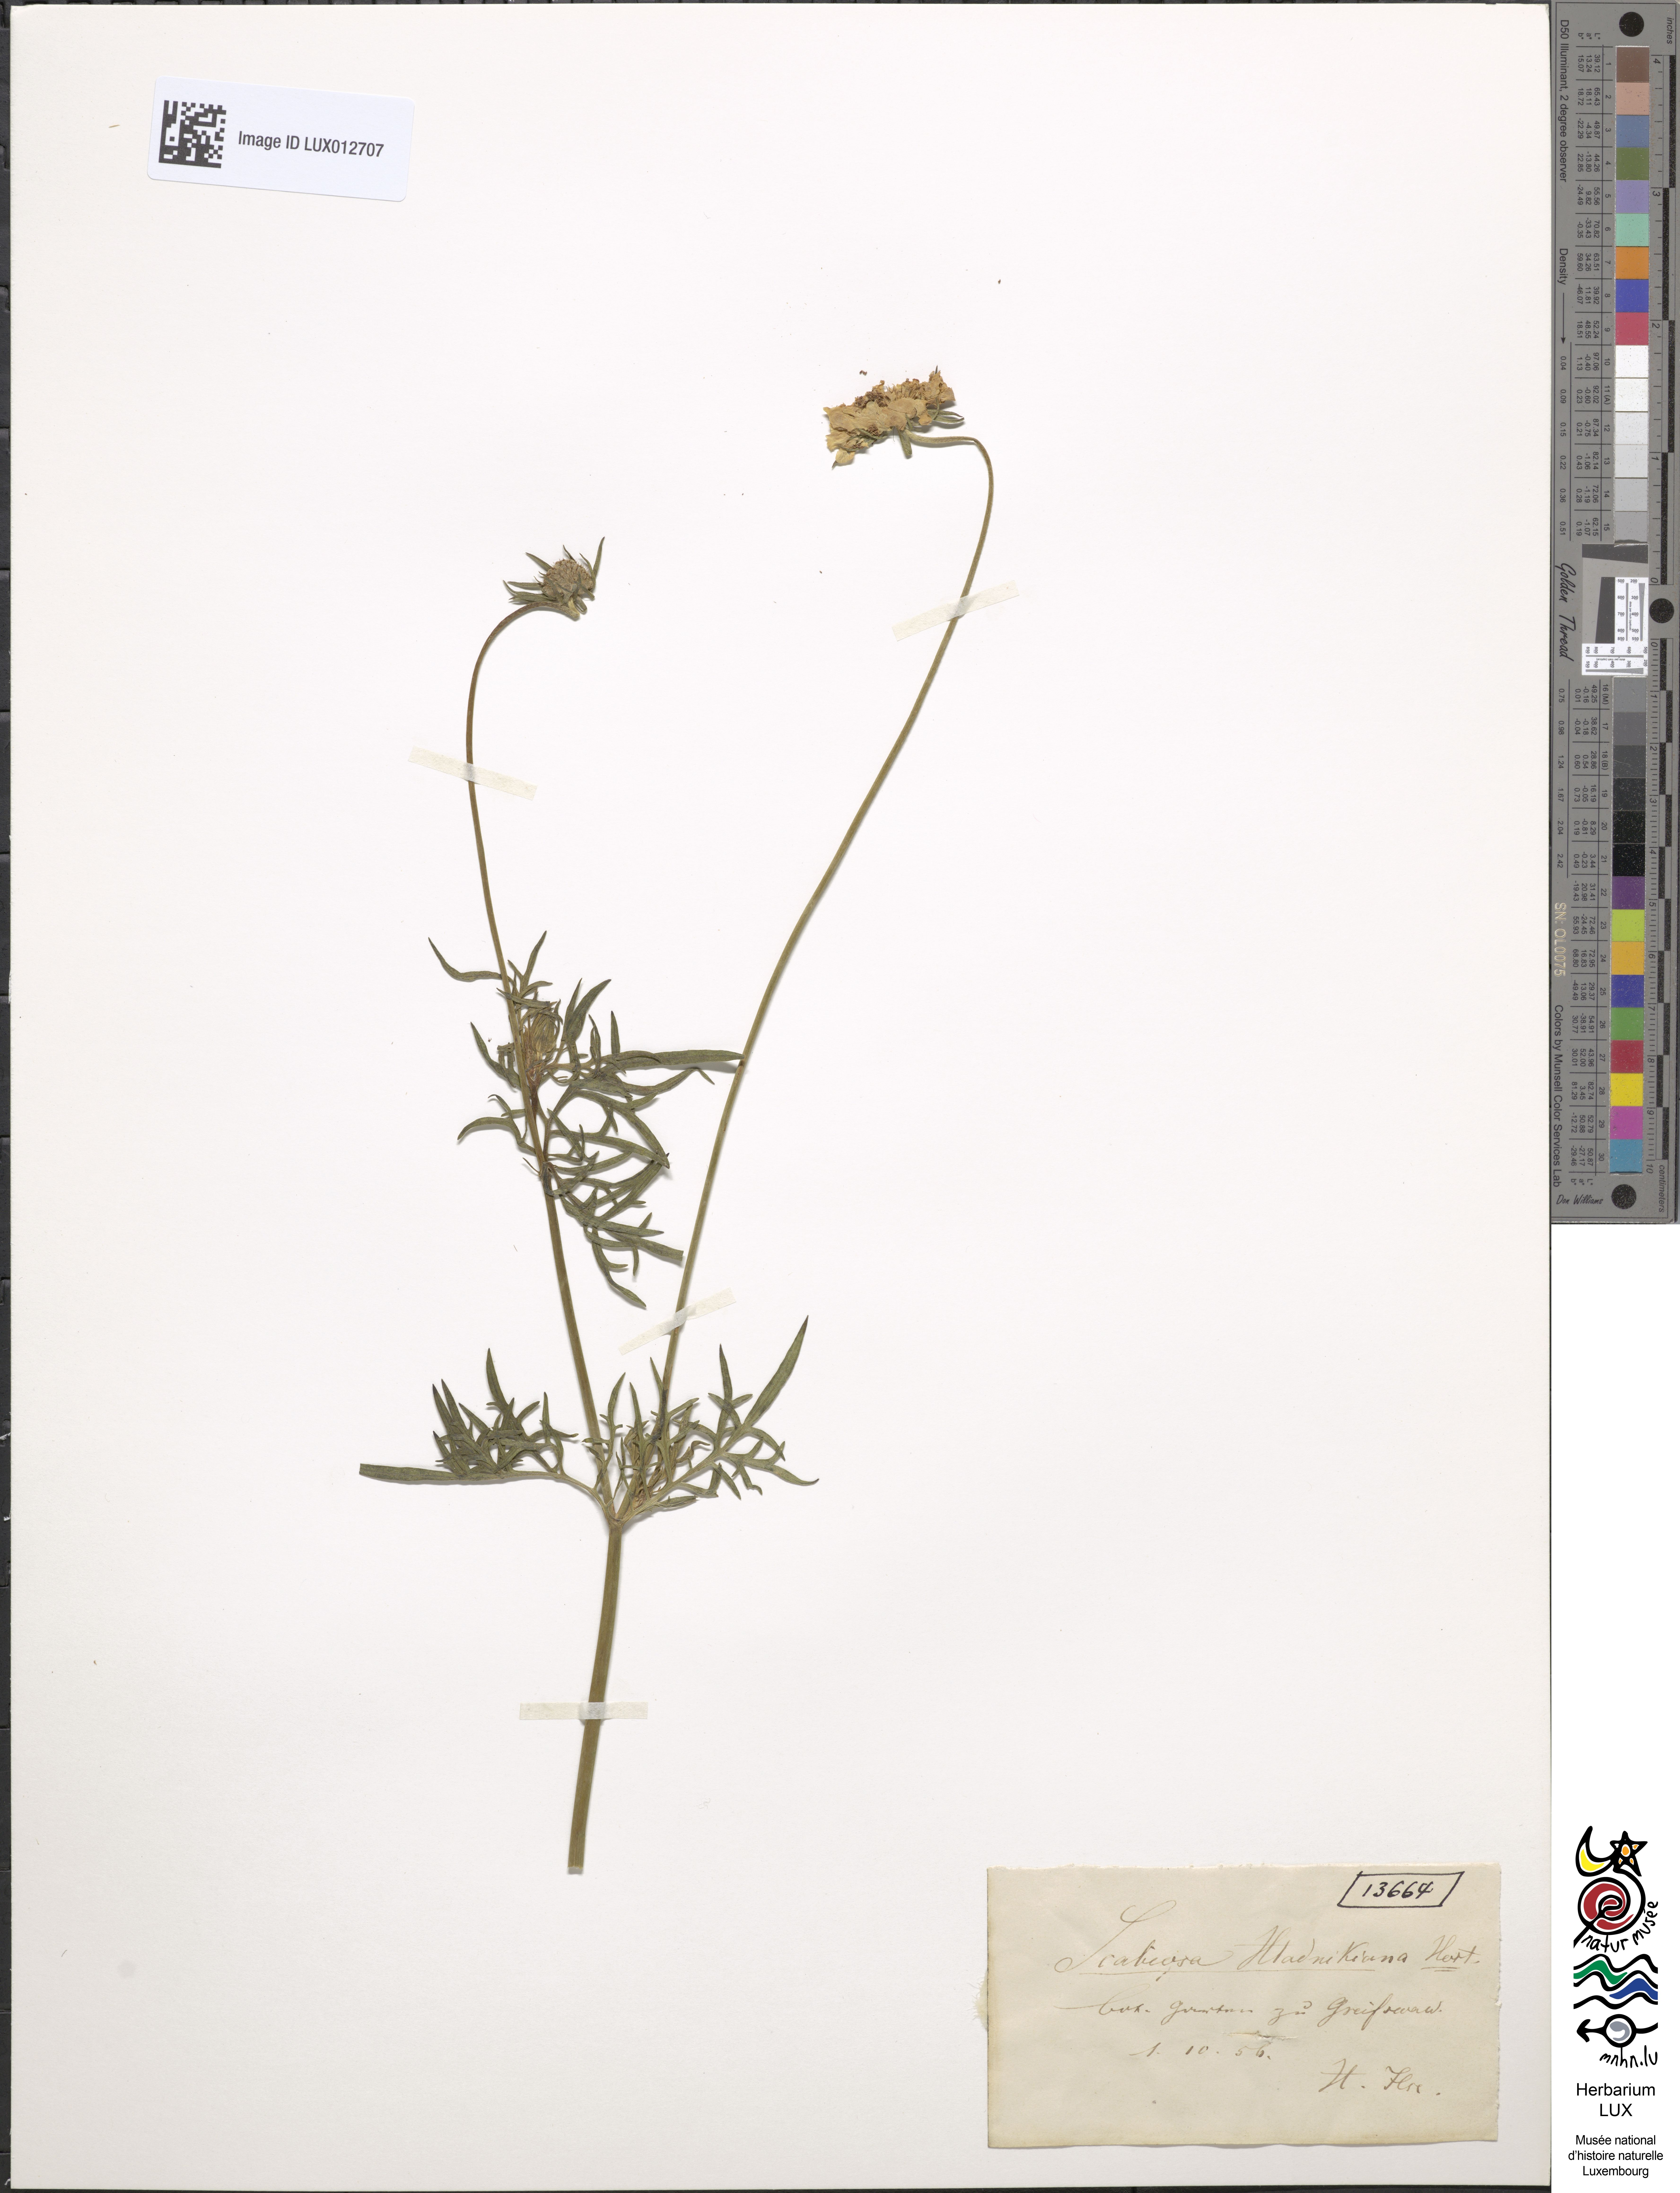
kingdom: Plantae
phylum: Tracheophyta
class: Magnoliopsida
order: Dipsacales
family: Caprifoliaceae
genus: Scabiosa
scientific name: Scabiosa cinerea
